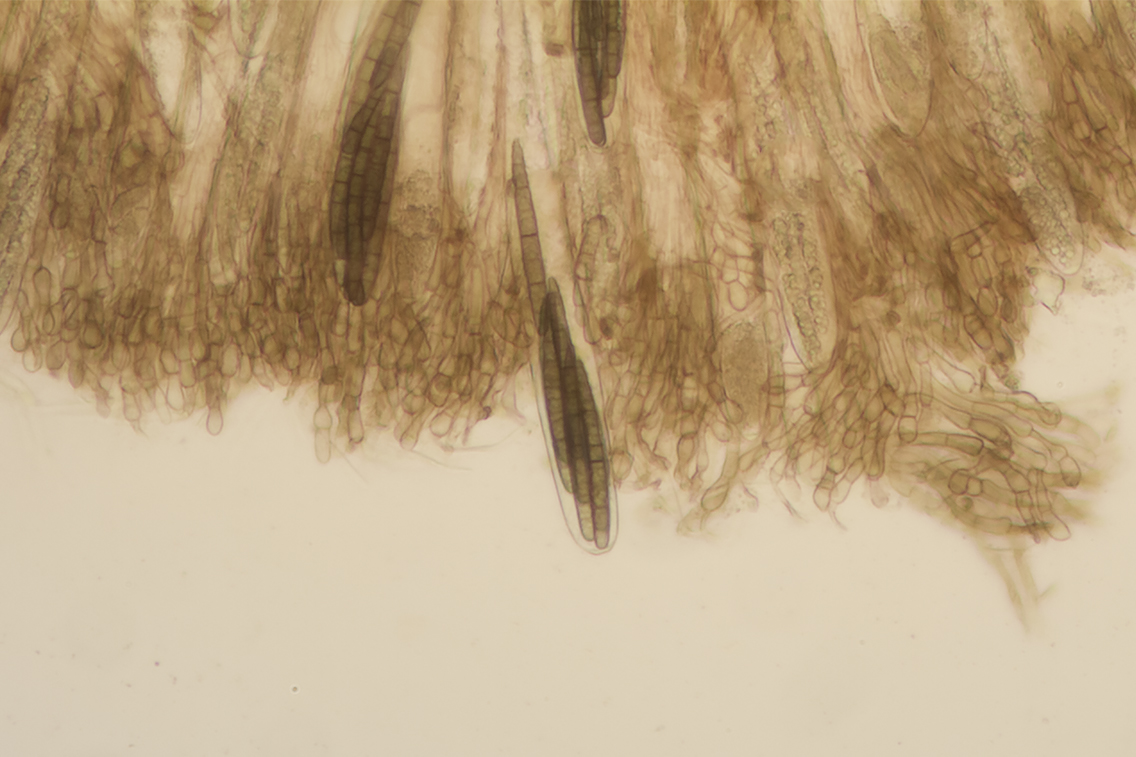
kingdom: Fungi
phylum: Ascomycota
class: Geoglossomycetes
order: Geoglossales
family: Geoglossaceae
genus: Geoglossum
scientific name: Geoglossum cookeianum
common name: bred jordtunge
